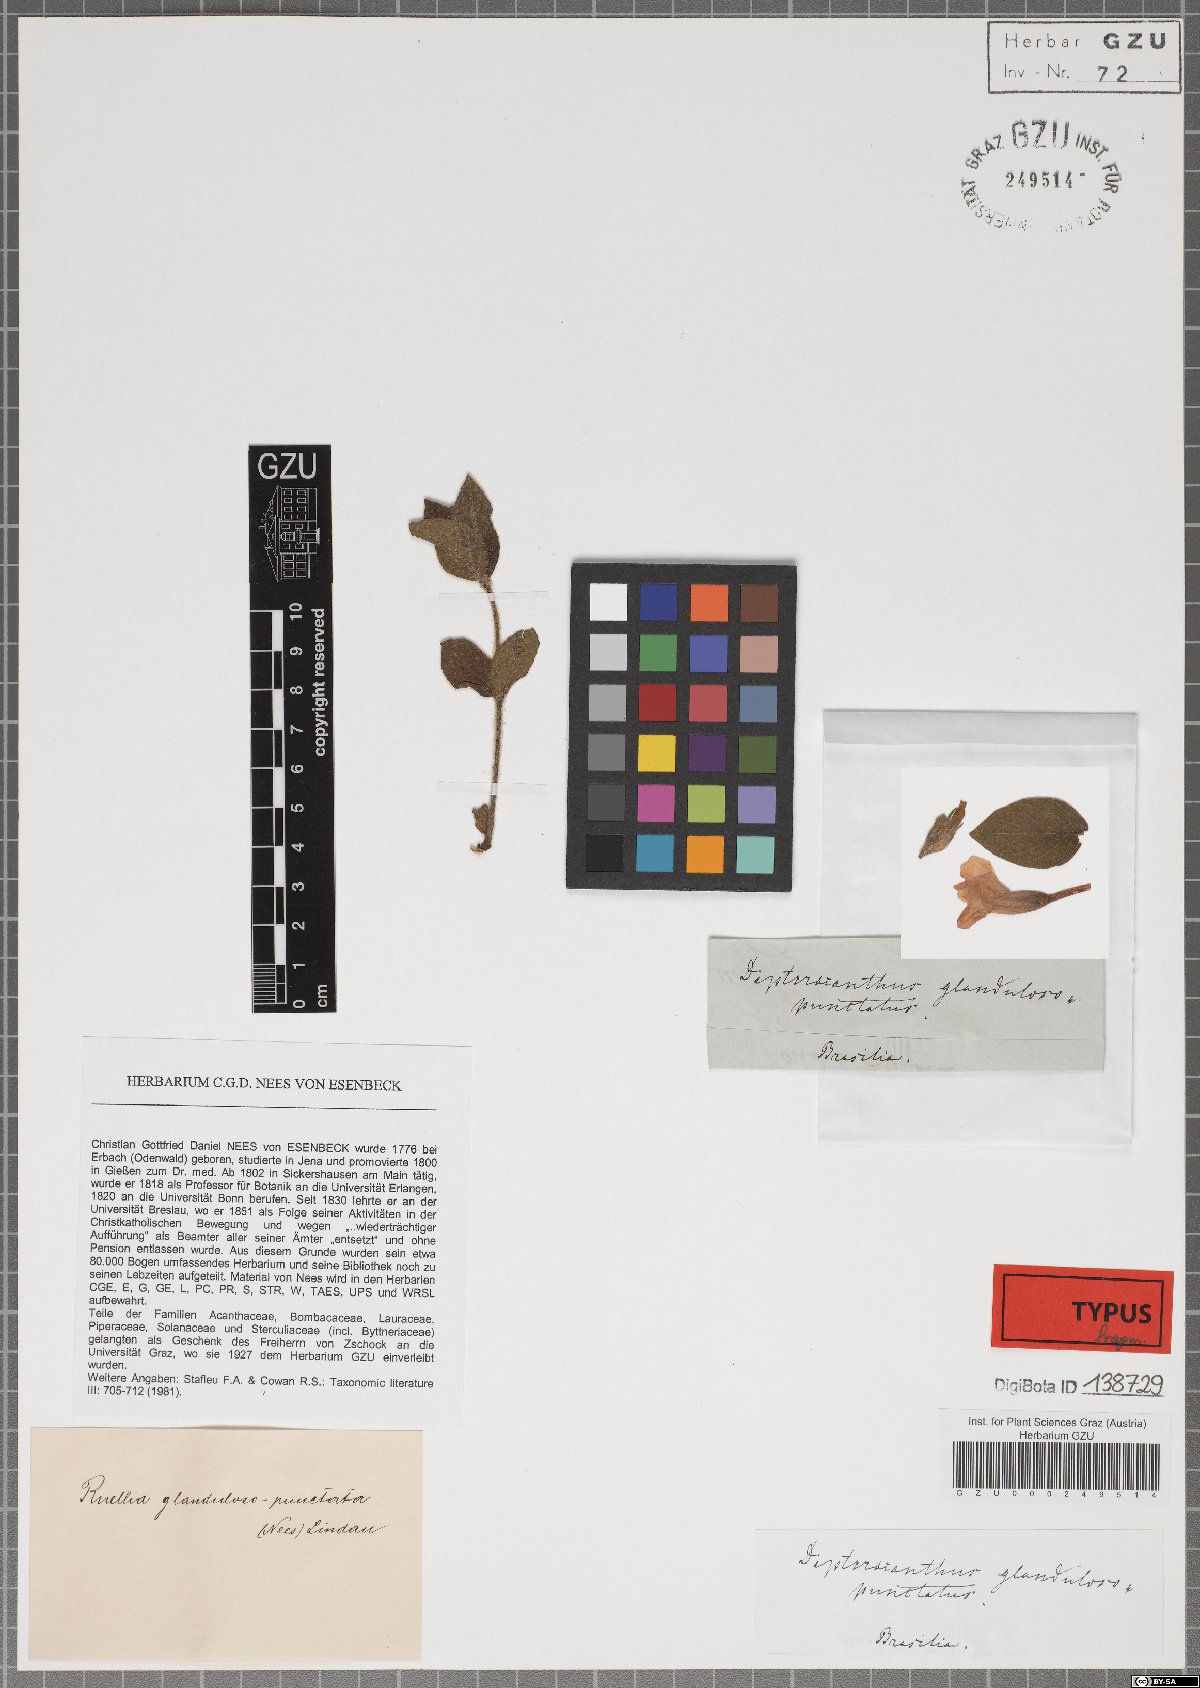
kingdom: Plantae
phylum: Tracheophyta
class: Magnoliopsida
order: Lamiales
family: Acanthaceae
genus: Ruellia
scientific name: Ruellia multifolia
